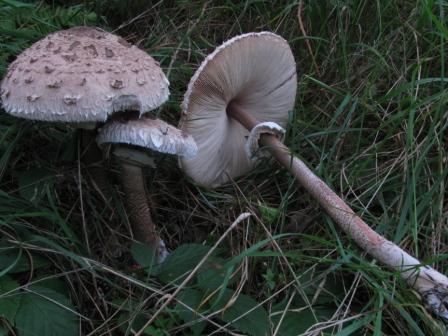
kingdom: Fungi
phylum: Basidiomycota
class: Agaricomycetes
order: Agaricales
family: Agaricaceae
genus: Macrolepiota
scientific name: Macrolepiota fuliginosa
